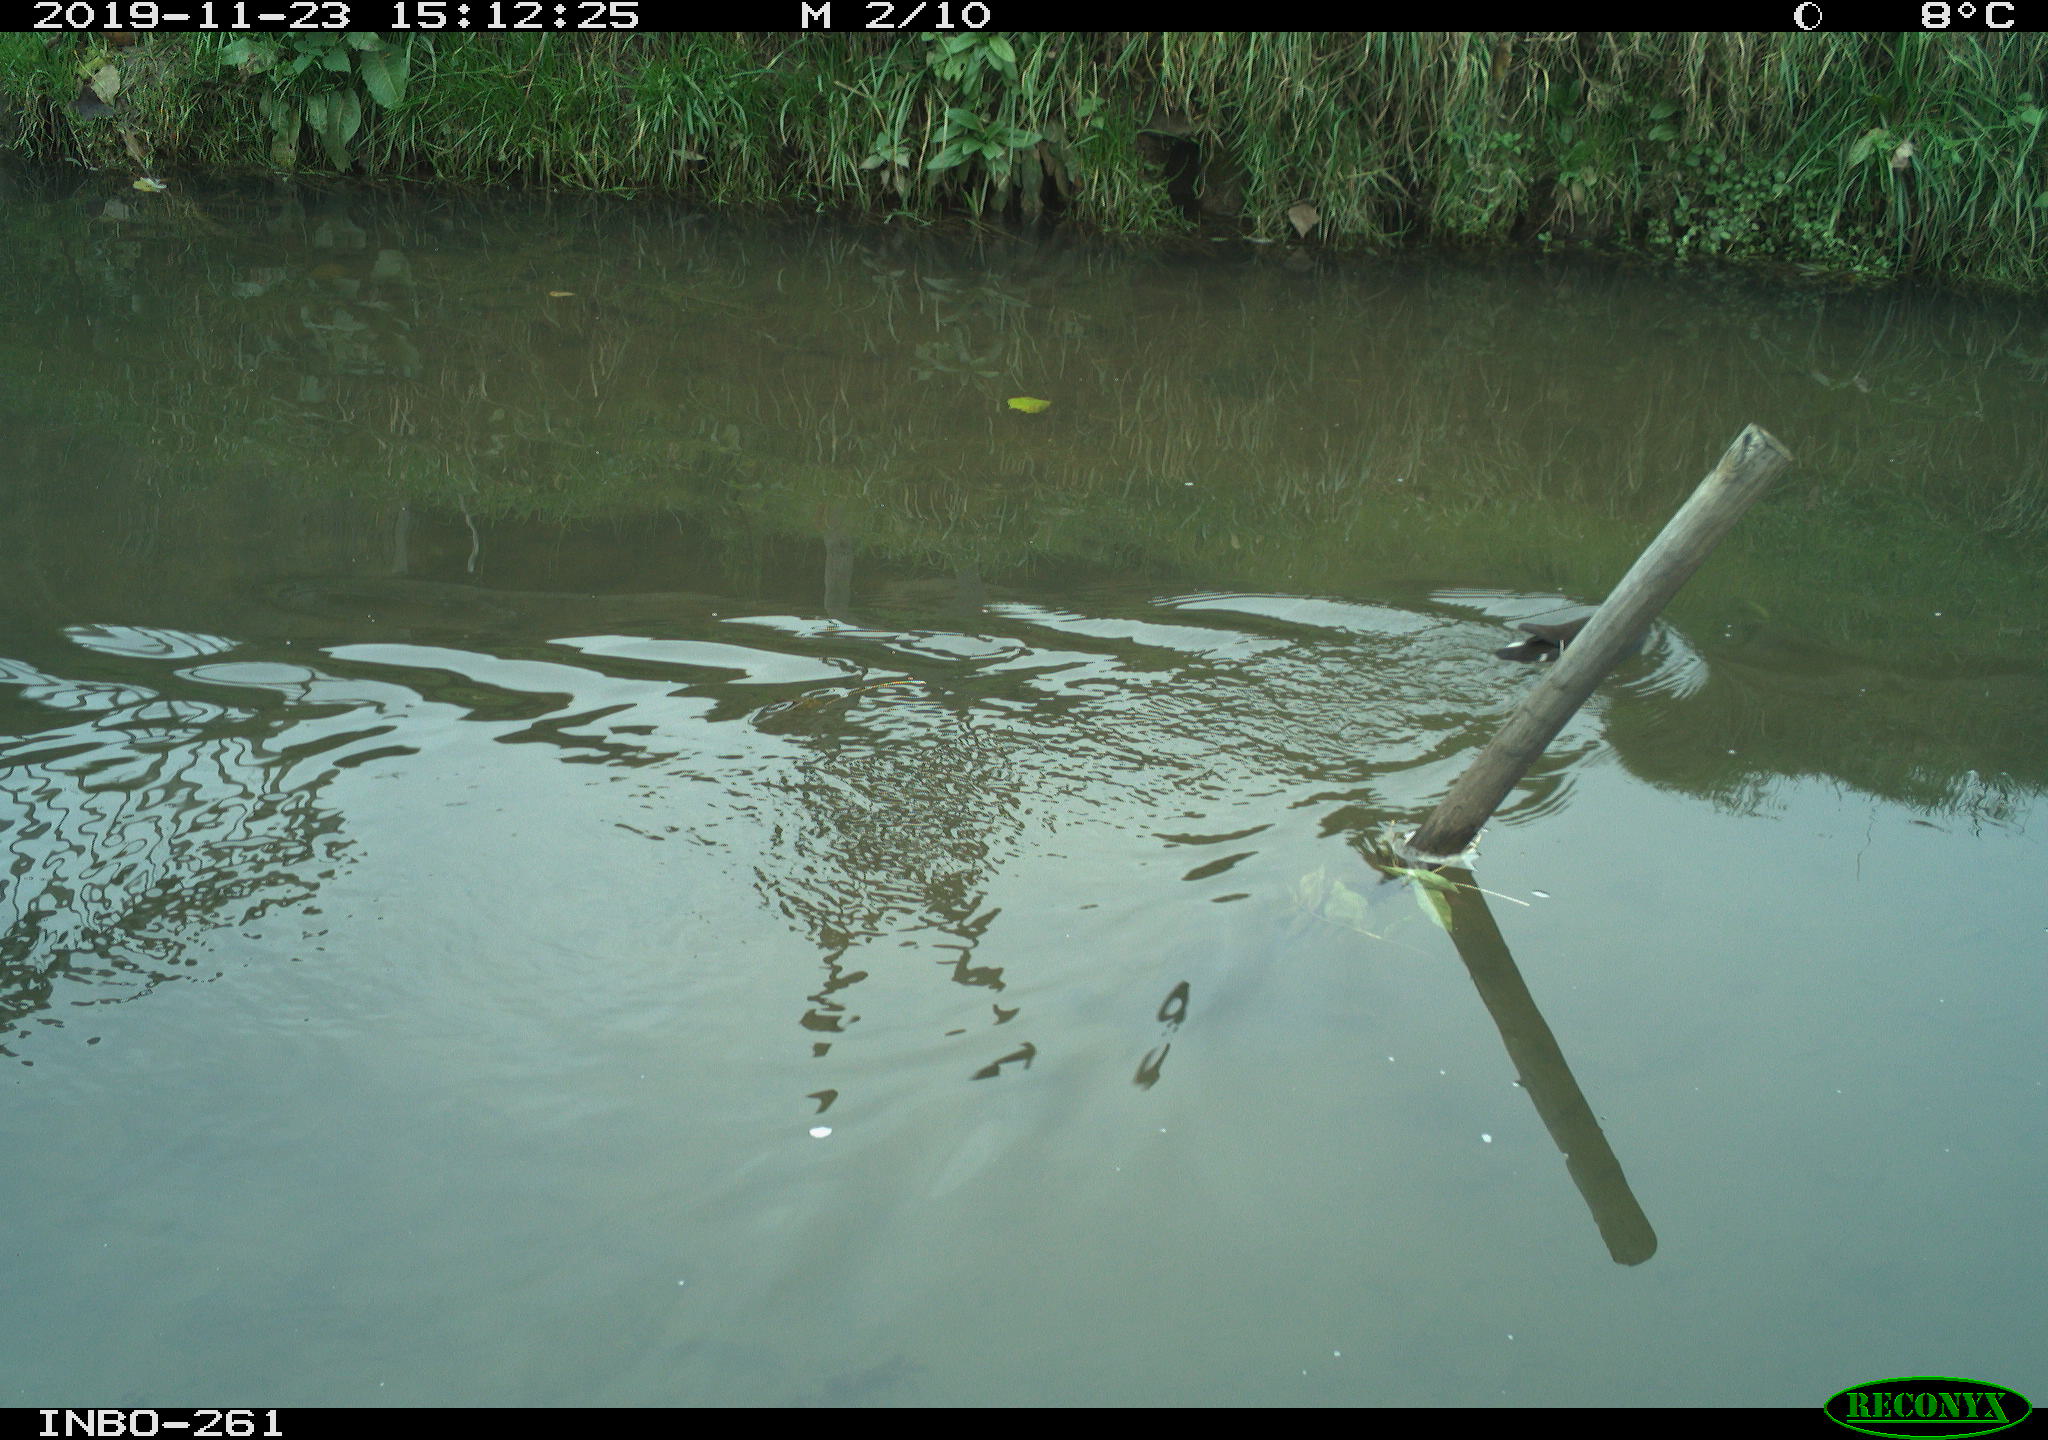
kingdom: Animalia
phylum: Chordata
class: Aves
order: Gruiformes
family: Rallidae
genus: Gallinula
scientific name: Gallinula chloropus
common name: Common moorhen
